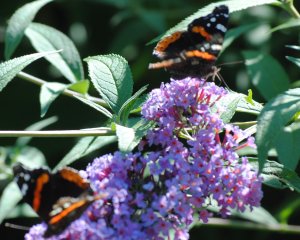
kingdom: Animalia
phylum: Arthropoda
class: Insecta
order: Lepidoptera
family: Nymphalidae
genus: Vanessa
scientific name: Vanessa atalanta
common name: Red Admiral
